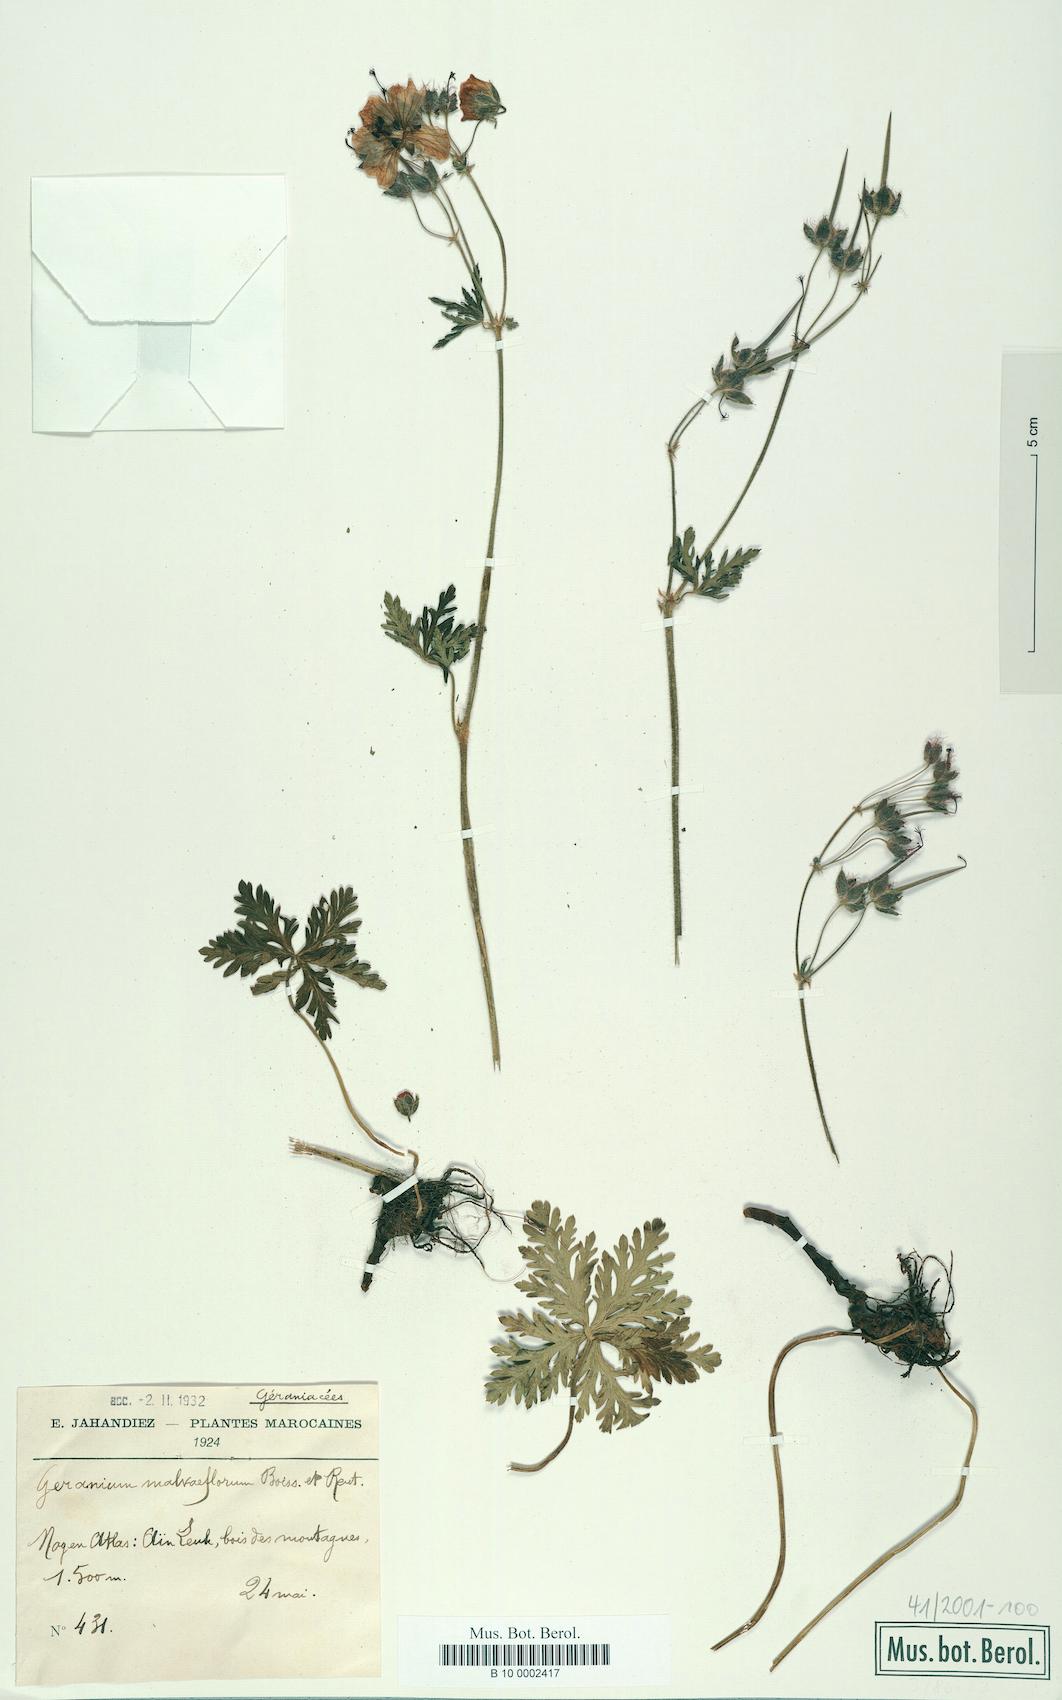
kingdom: Plantae
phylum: Tracheophyta
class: Magnoliopsida
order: Geraniales
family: Geraniaceae
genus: Geranium
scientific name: Geranium malviflorum
